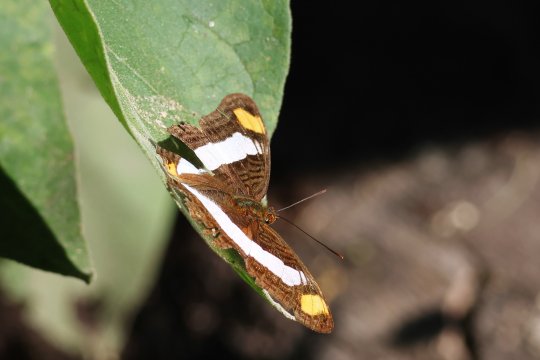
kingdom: Animalia
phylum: Arthropoda
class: Insecta
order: Lepidoptera
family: Nymphalidae
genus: Limenitis
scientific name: Limenitis Adelpha basiloides
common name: Spot-celled Sister
